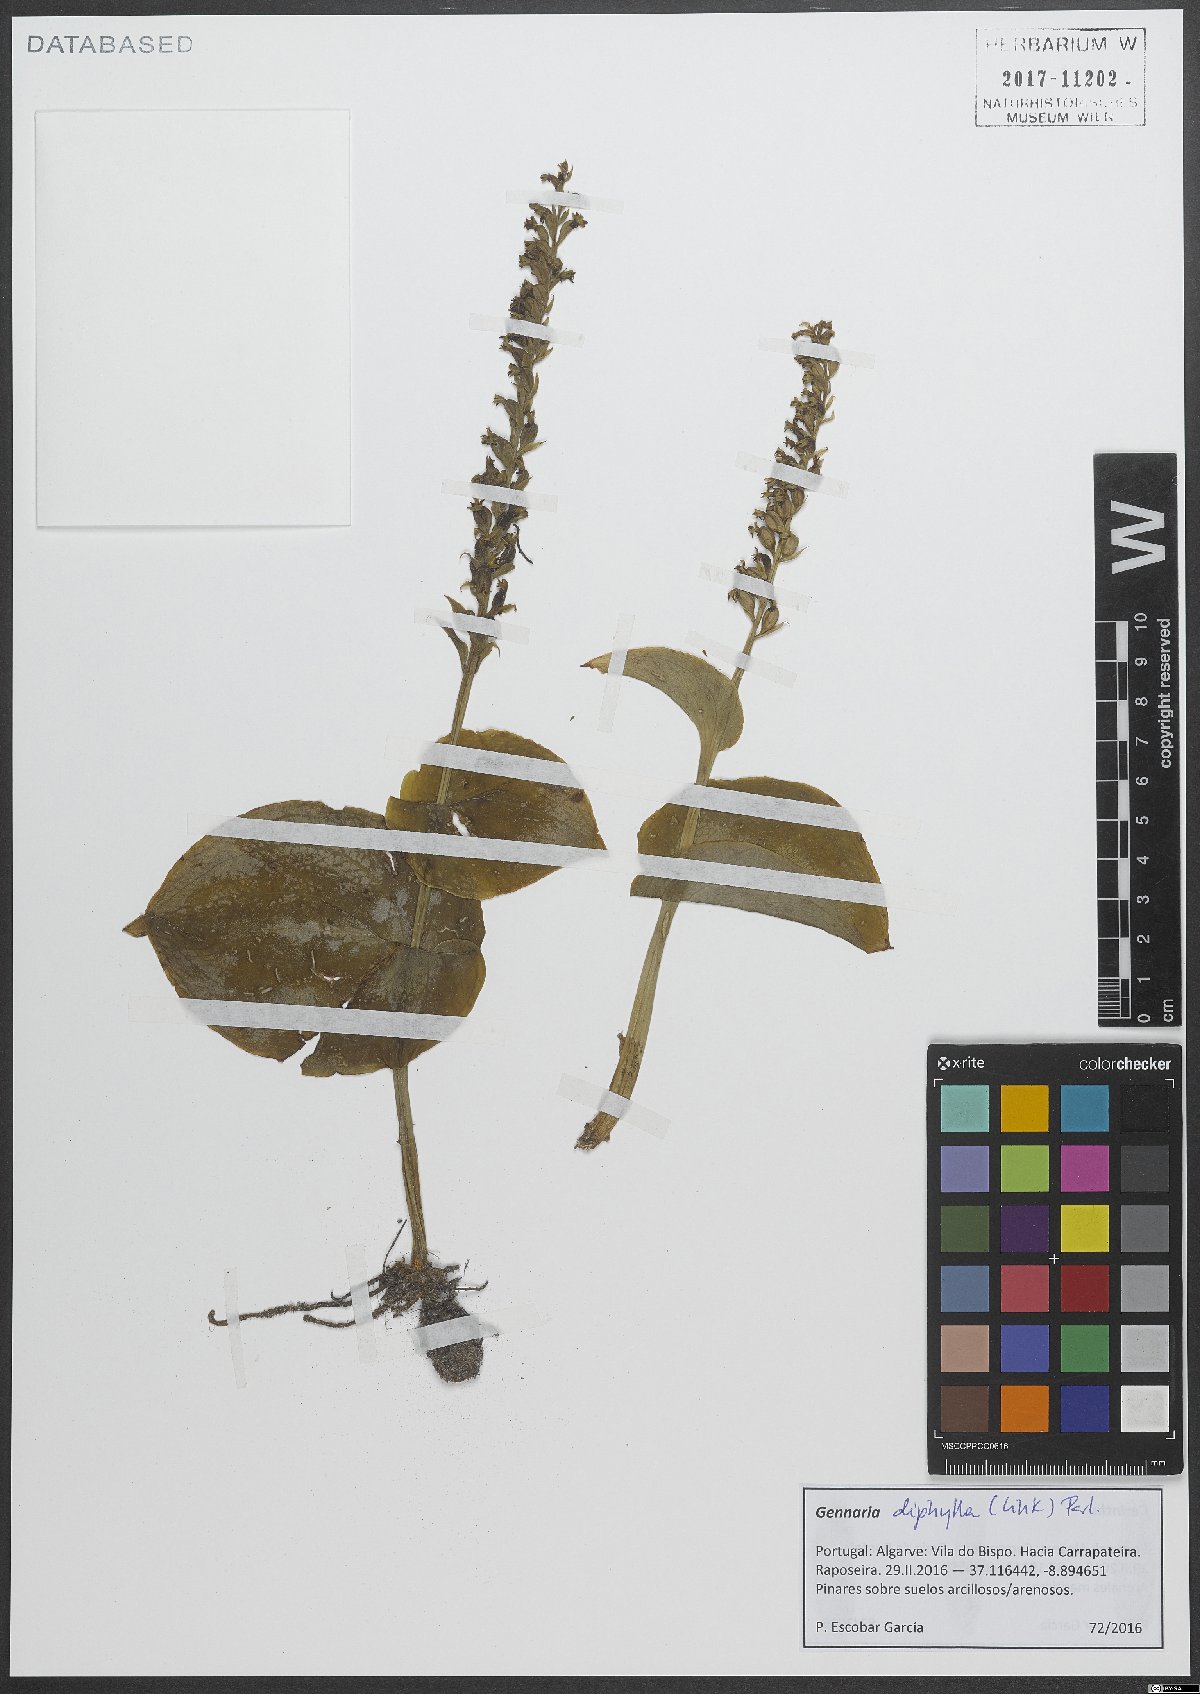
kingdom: Plantae
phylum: Tracheophyta
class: Liliopsida
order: Asparagales
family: Orchidaceae
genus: Gennaria
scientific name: Gennaria diphylla
